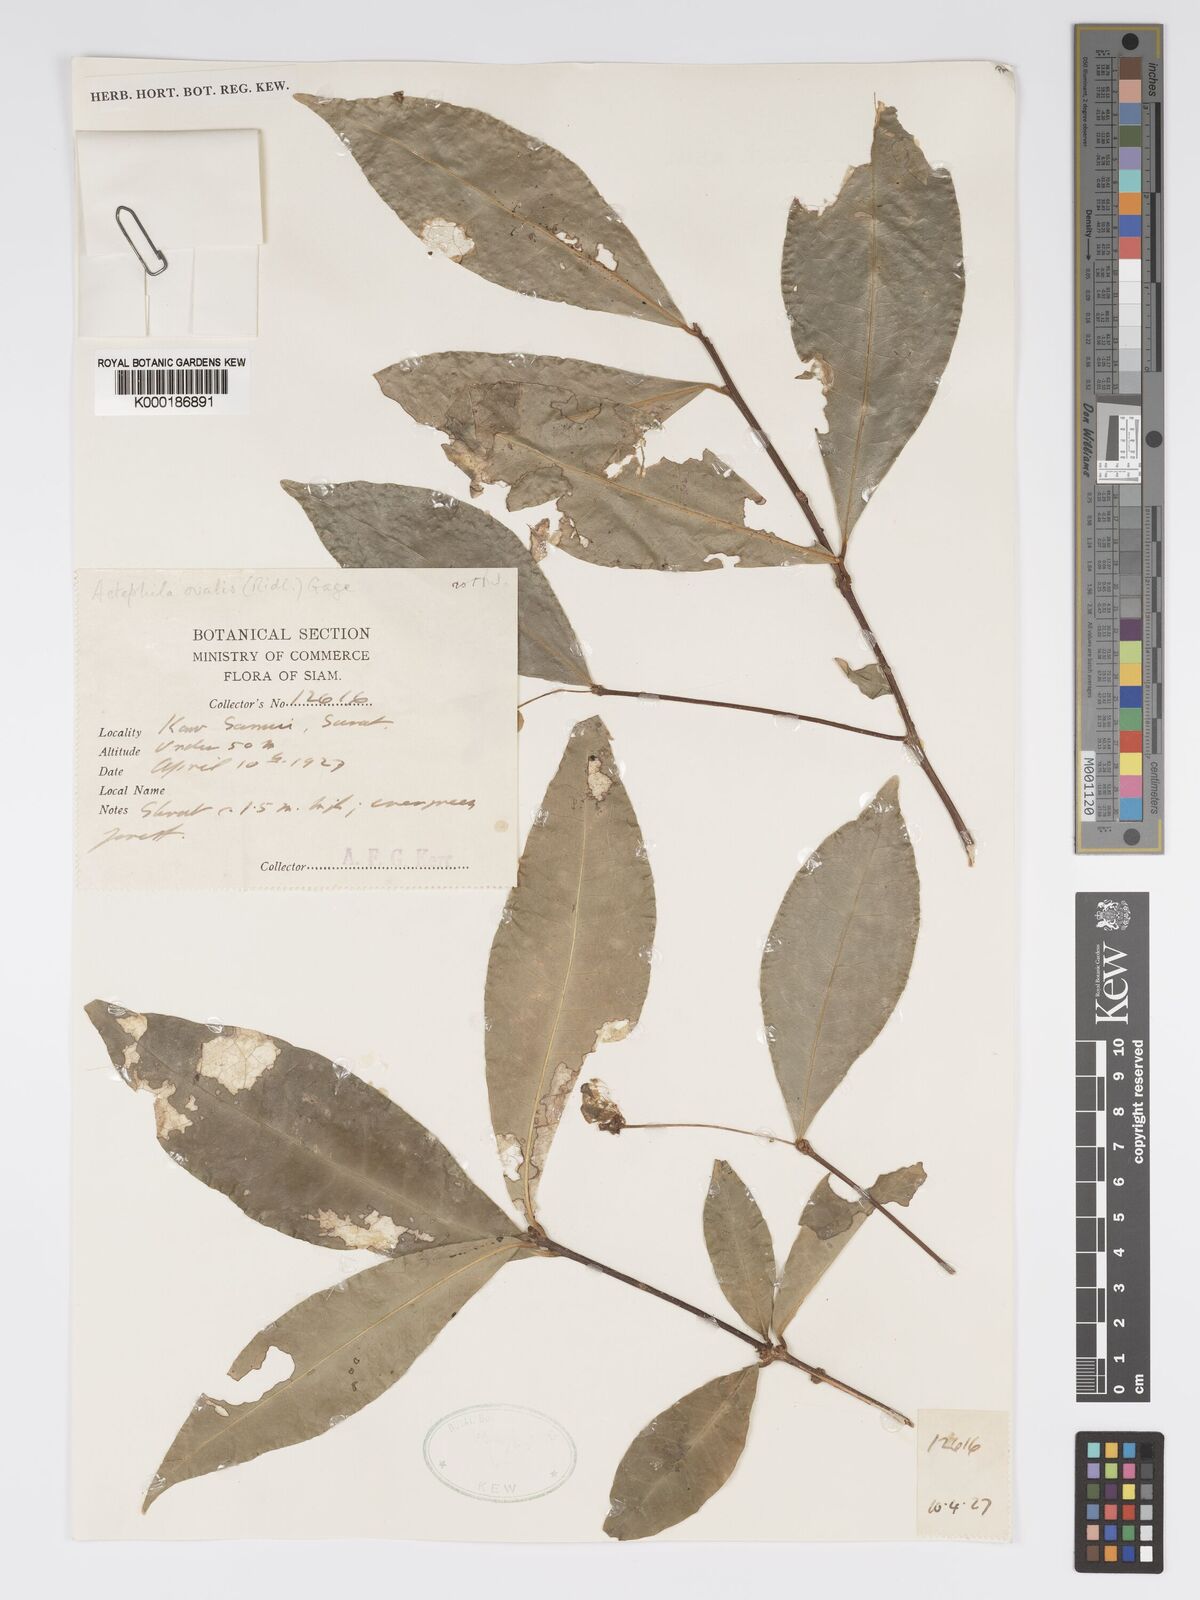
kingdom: Plantae
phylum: Tracheophyta
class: Magnoliopsida
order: Malpighiales
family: Phyllanthaceae
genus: Actephila
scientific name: Actephila ovalis
